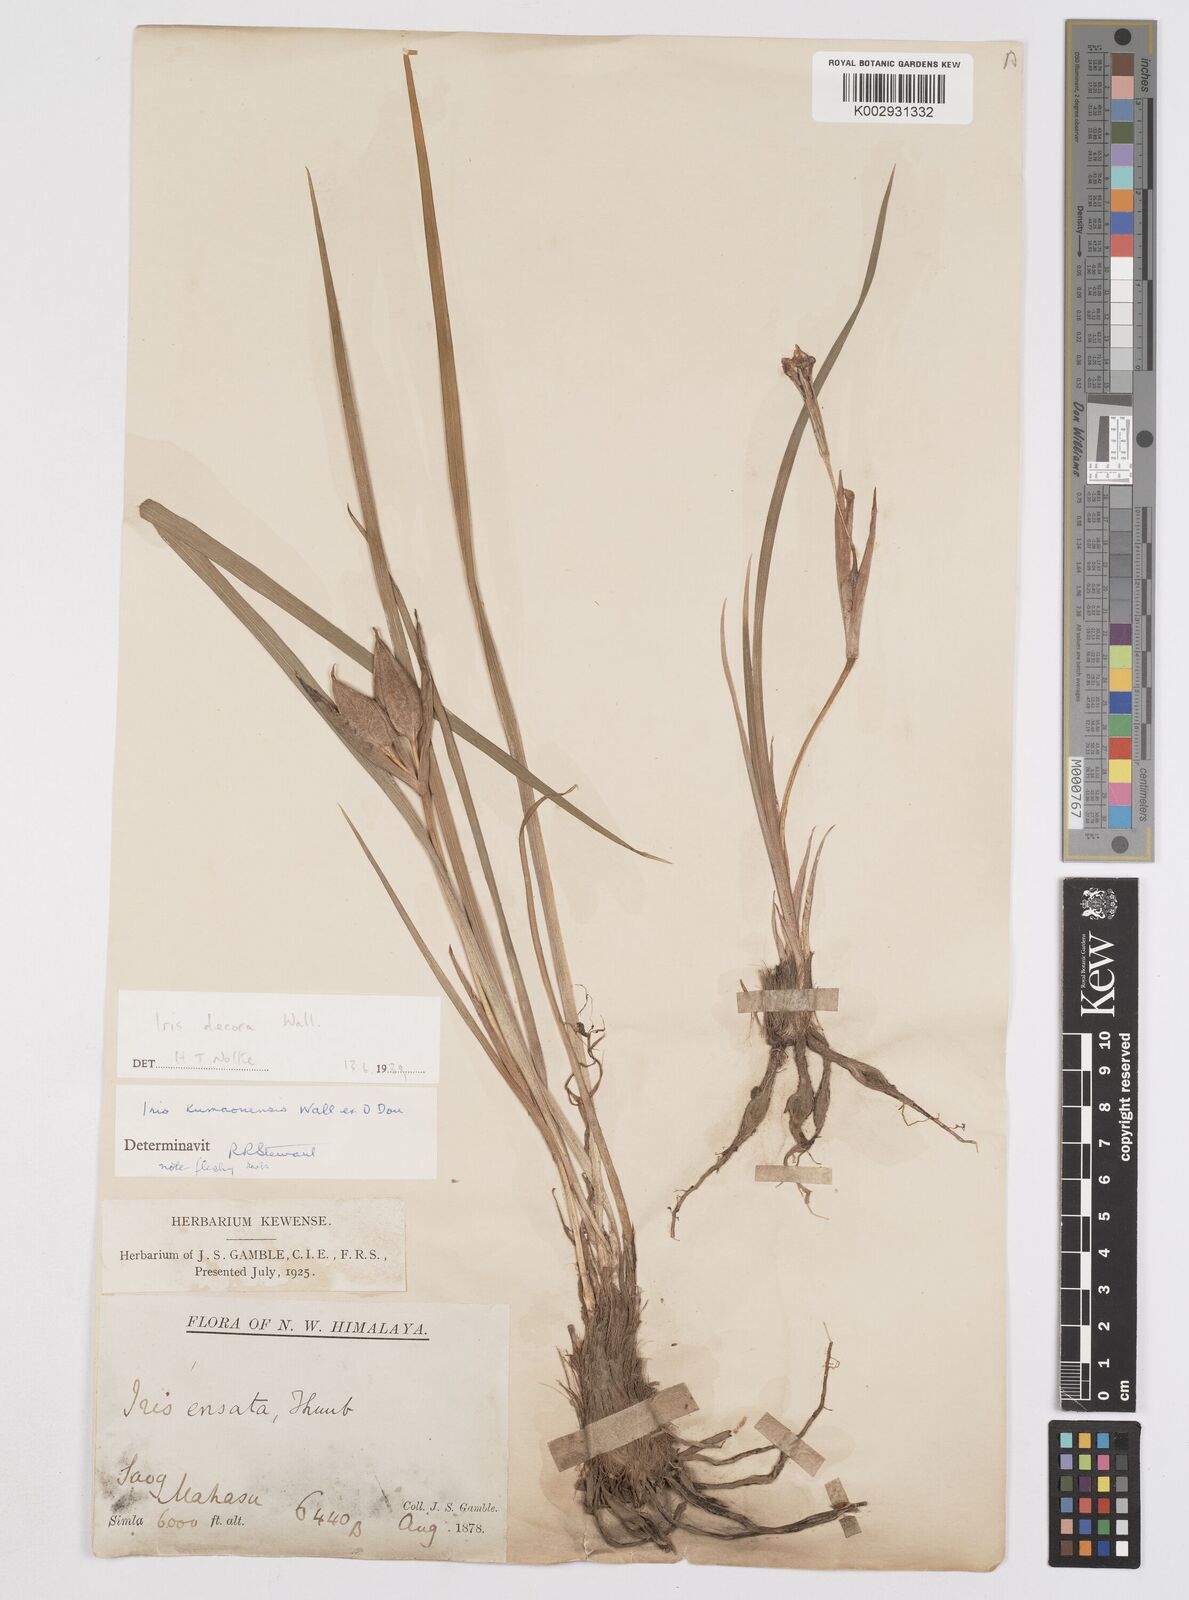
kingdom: Plantae
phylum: Tracheophyta
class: Liliopsida
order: Asparagales
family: Iridaceae
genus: Iris
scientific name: Iris decora
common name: Nepal iris
